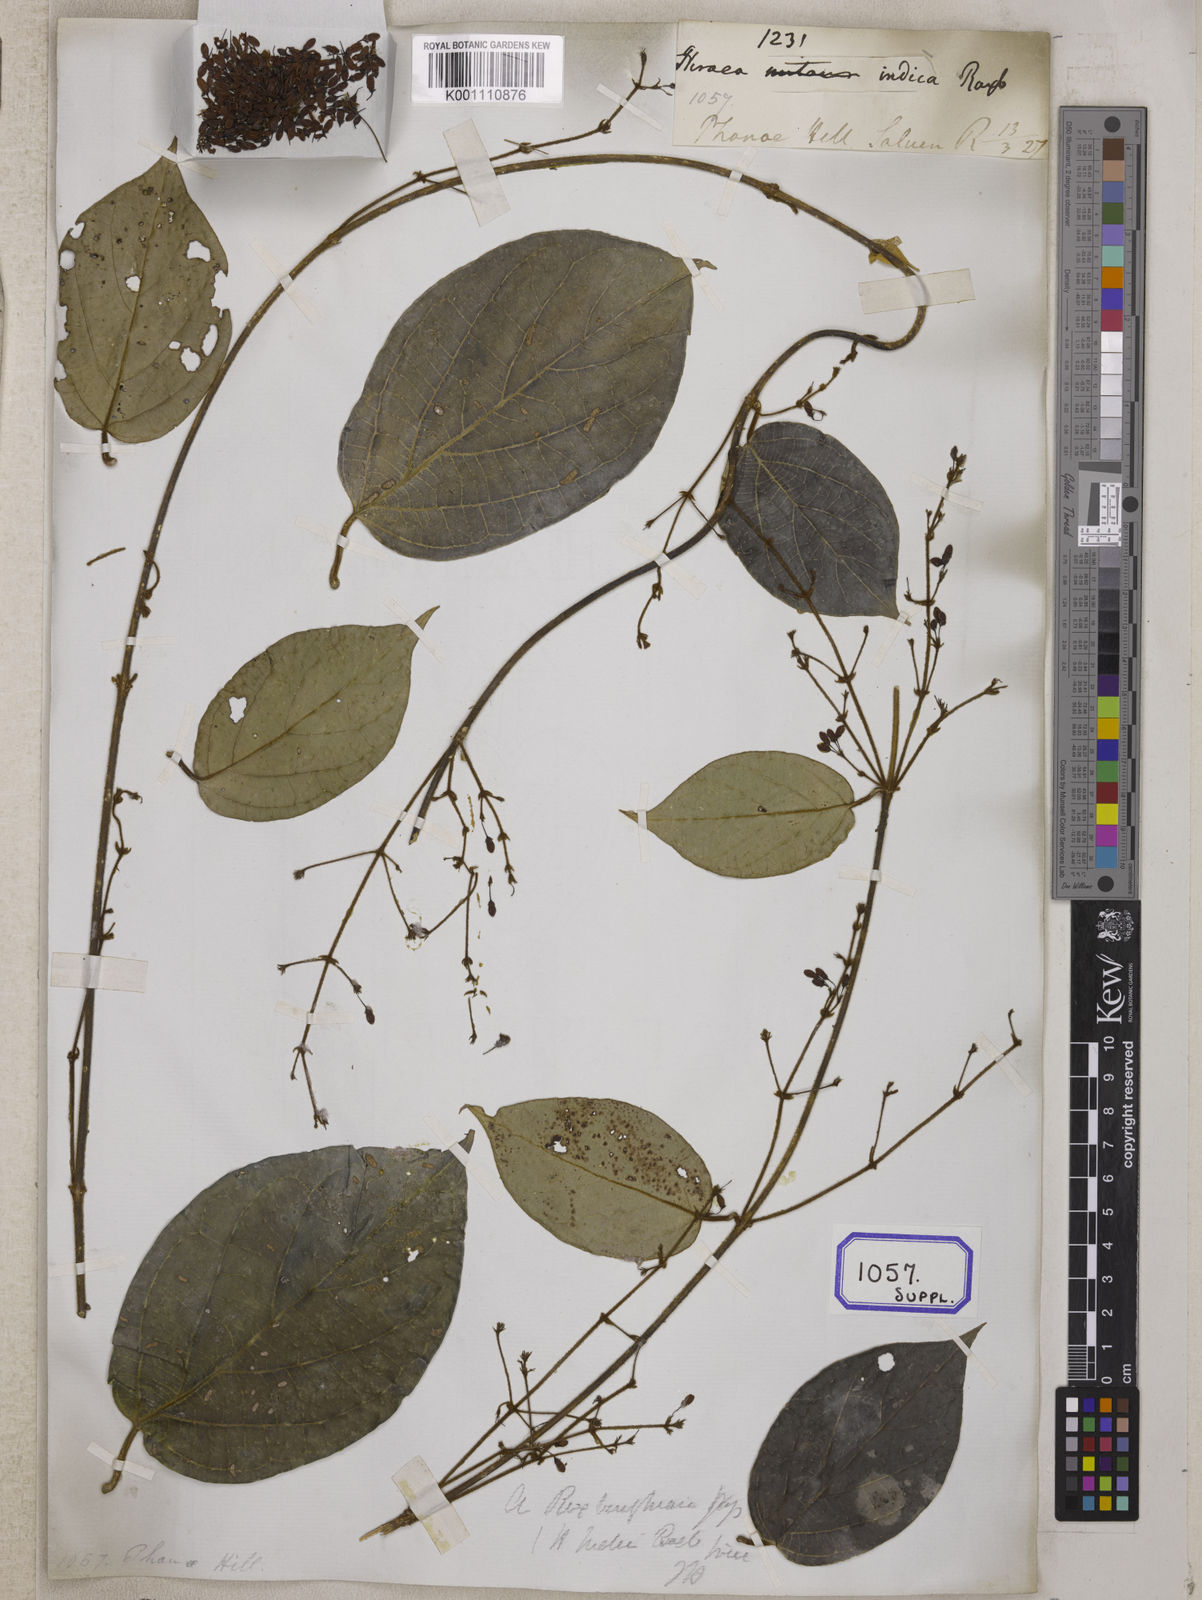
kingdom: Plantae
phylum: Tracheophyta
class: Magnoliopsida
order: Malpighiales
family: Malpighiaceae
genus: Aspidopterys
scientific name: Aspidopterys indica
